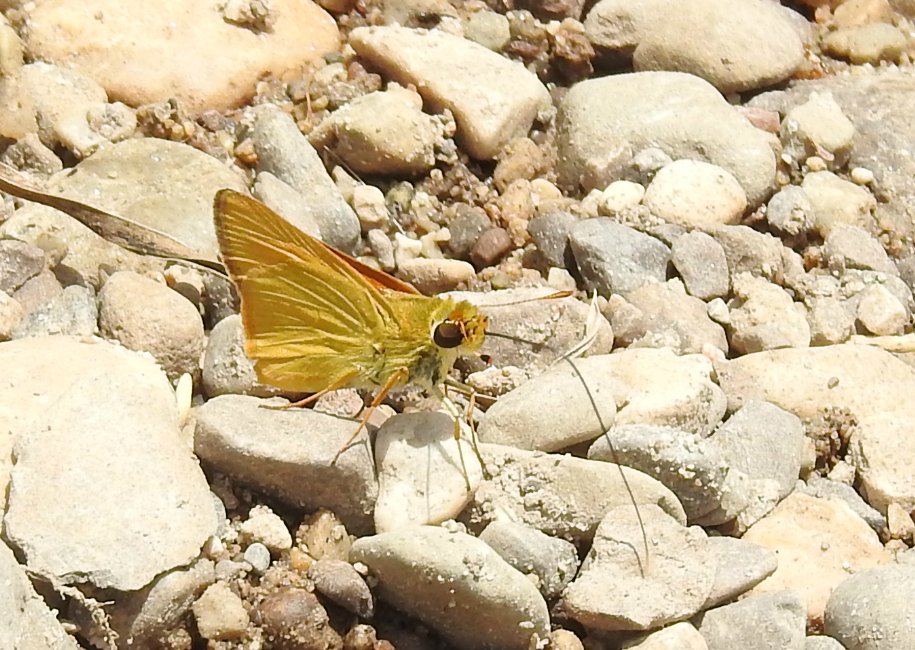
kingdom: Animalia
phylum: Arthropoda
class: Insecta
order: Lepidoptera
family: Hesperiidae
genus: Atrytone
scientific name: Atrytone delaware
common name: Delaware Skipper
